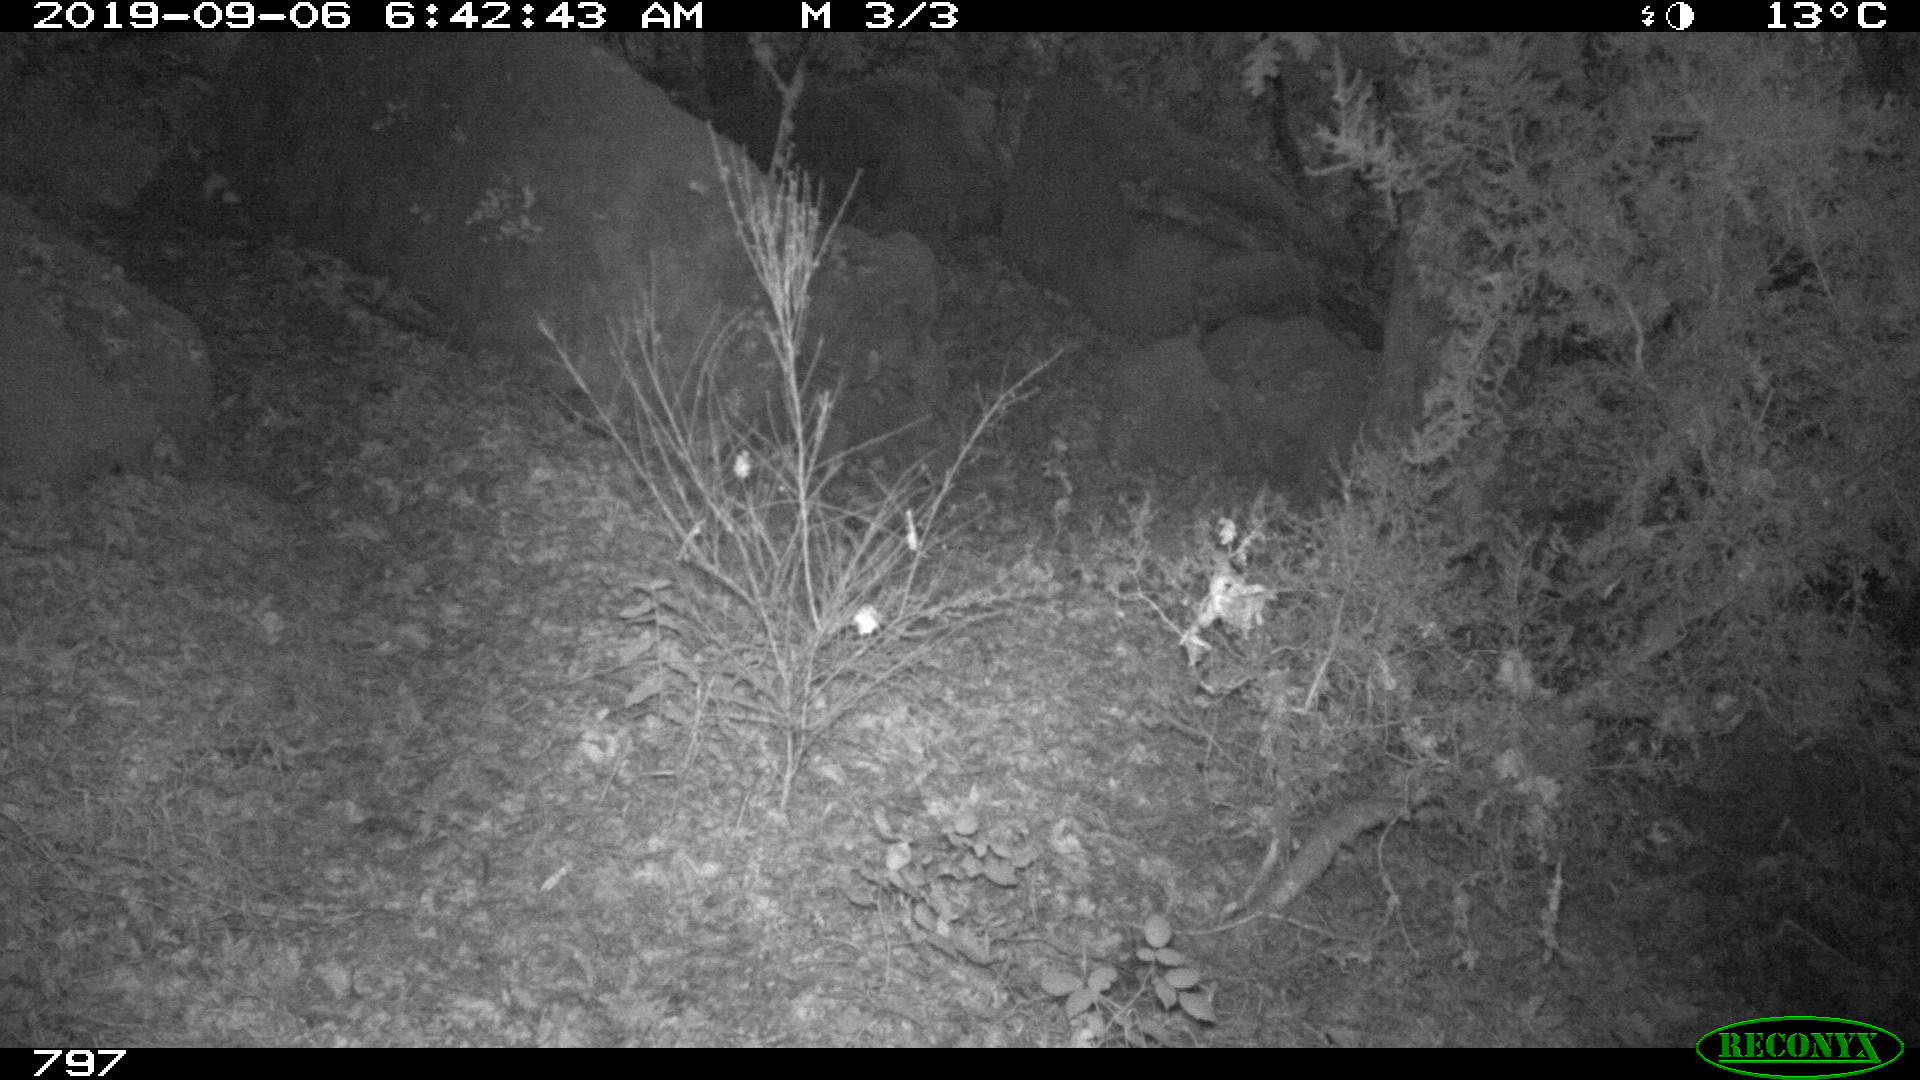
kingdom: Animalia
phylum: Chordata
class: Mammalia
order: Artiodactyla
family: Cervidae
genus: Capreolus
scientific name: Capreolus capreolus
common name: Western roe deer
